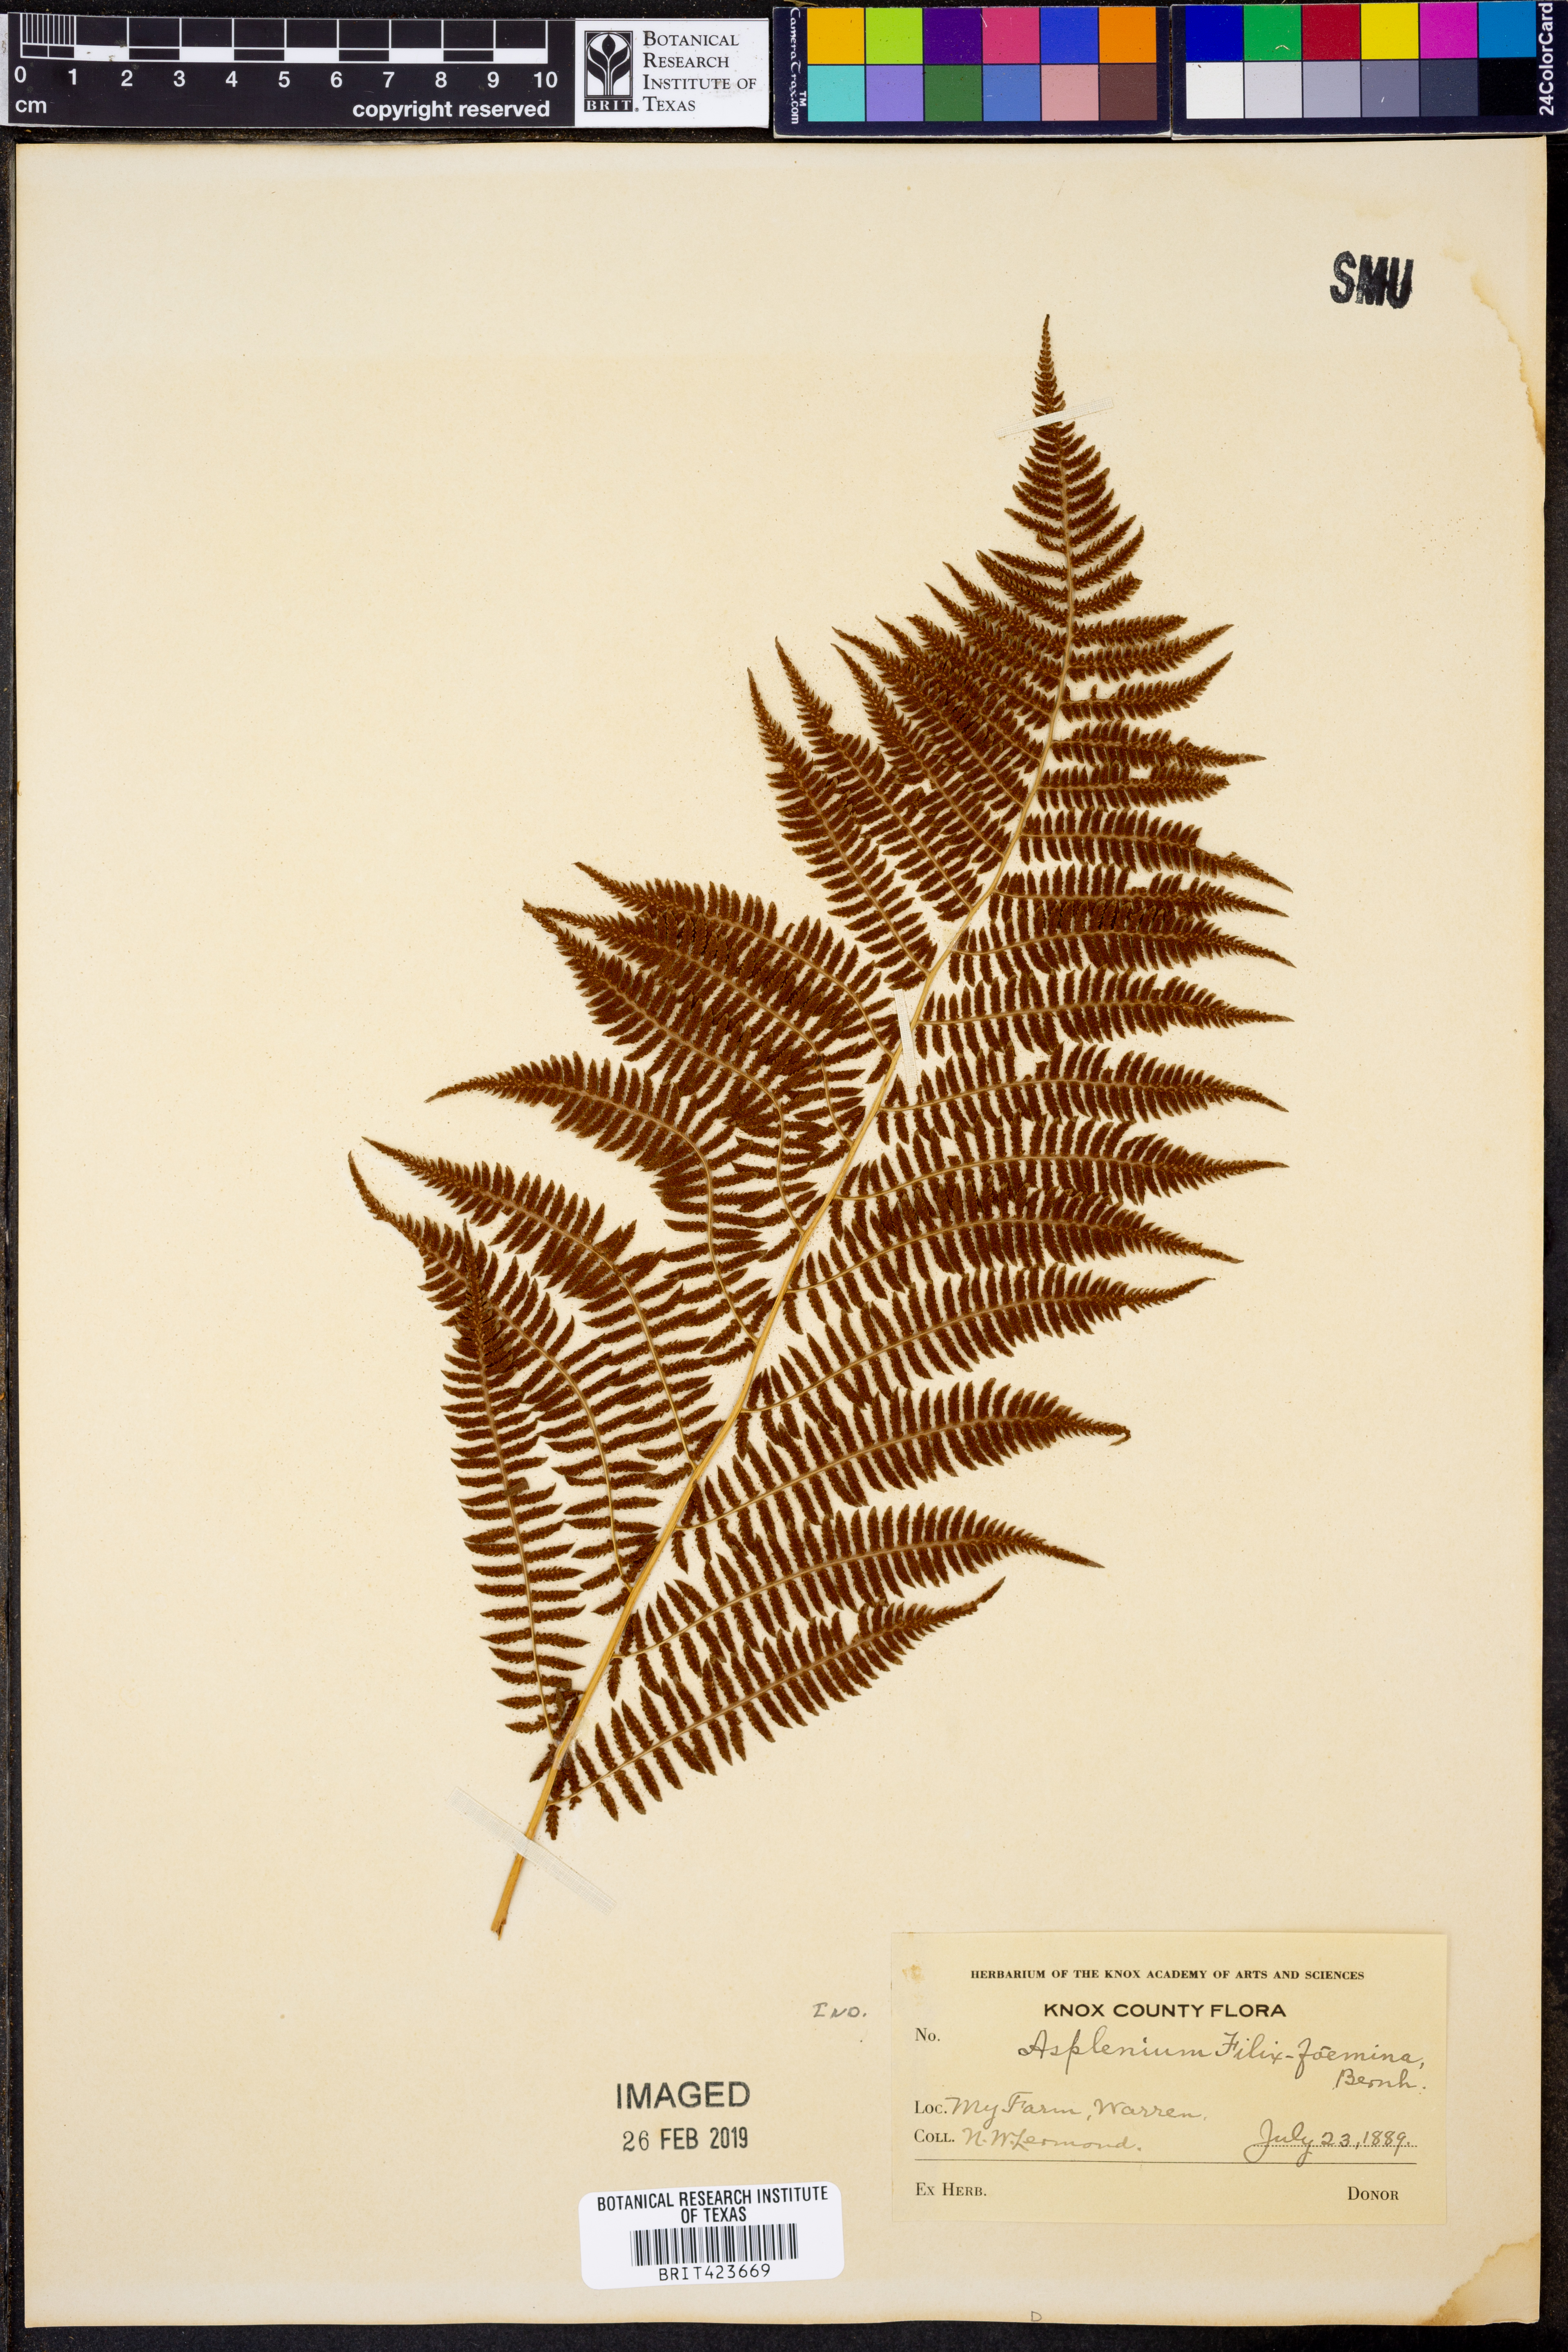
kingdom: Plantae
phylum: Tracheophyta
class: Polypodiopsida
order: Polypodiales
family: Athyriaceae
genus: Athyrium
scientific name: Athyrium filix-femina
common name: Lady fern
